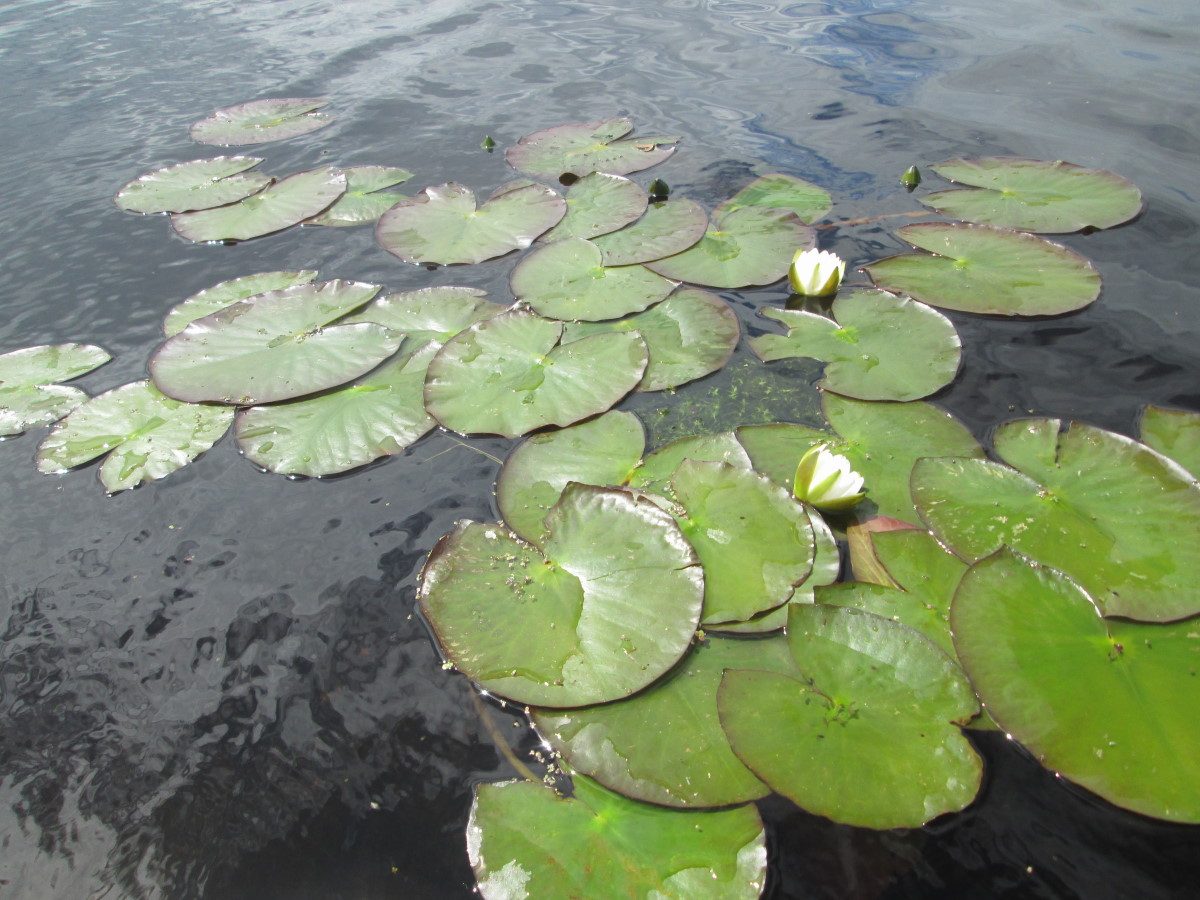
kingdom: Plantae
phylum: Tracheophyta
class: Magnoliopsida
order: Nymphaeales
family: Nymphaeaceae
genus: Nymphaea
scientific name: Nymphaea candida
